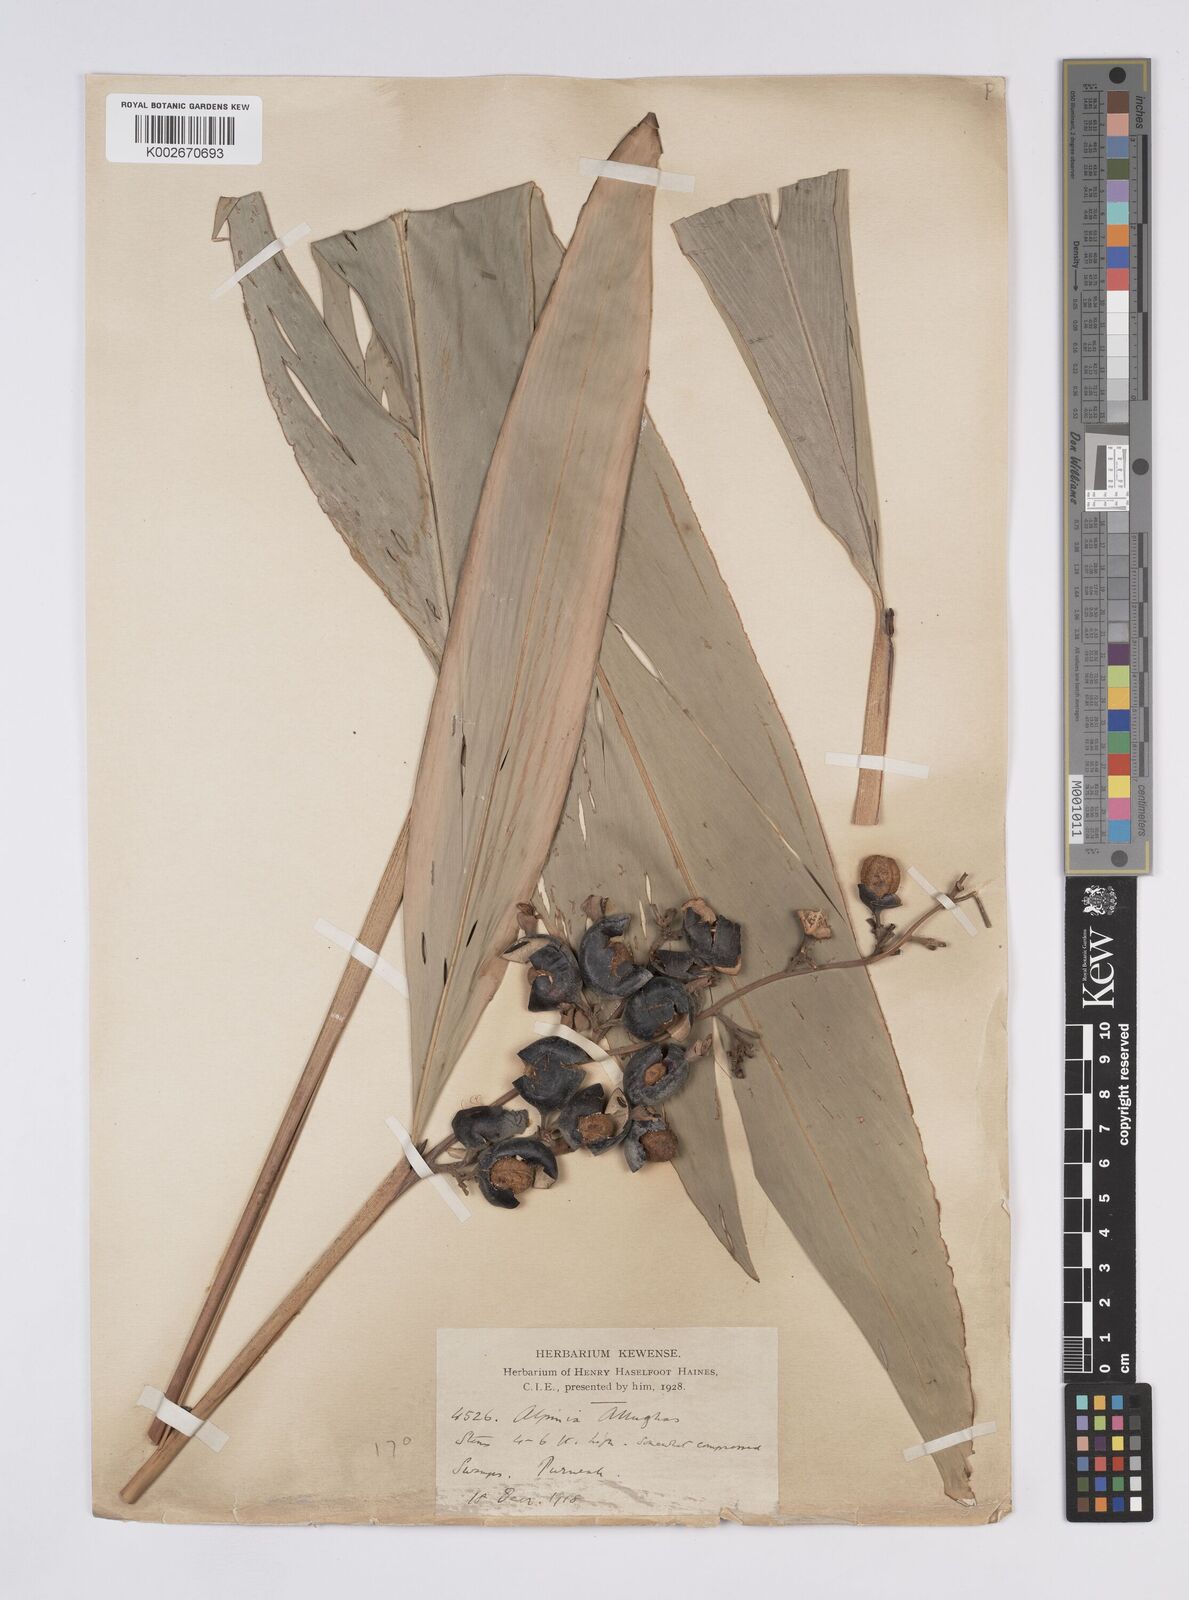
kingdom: Plantae
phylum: Tracheophyta
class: Liliopsida
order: Zingiberales
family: Zingiberaceae
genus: Alpinia
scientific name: Alpinia nigra
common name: Black fruited galanga
